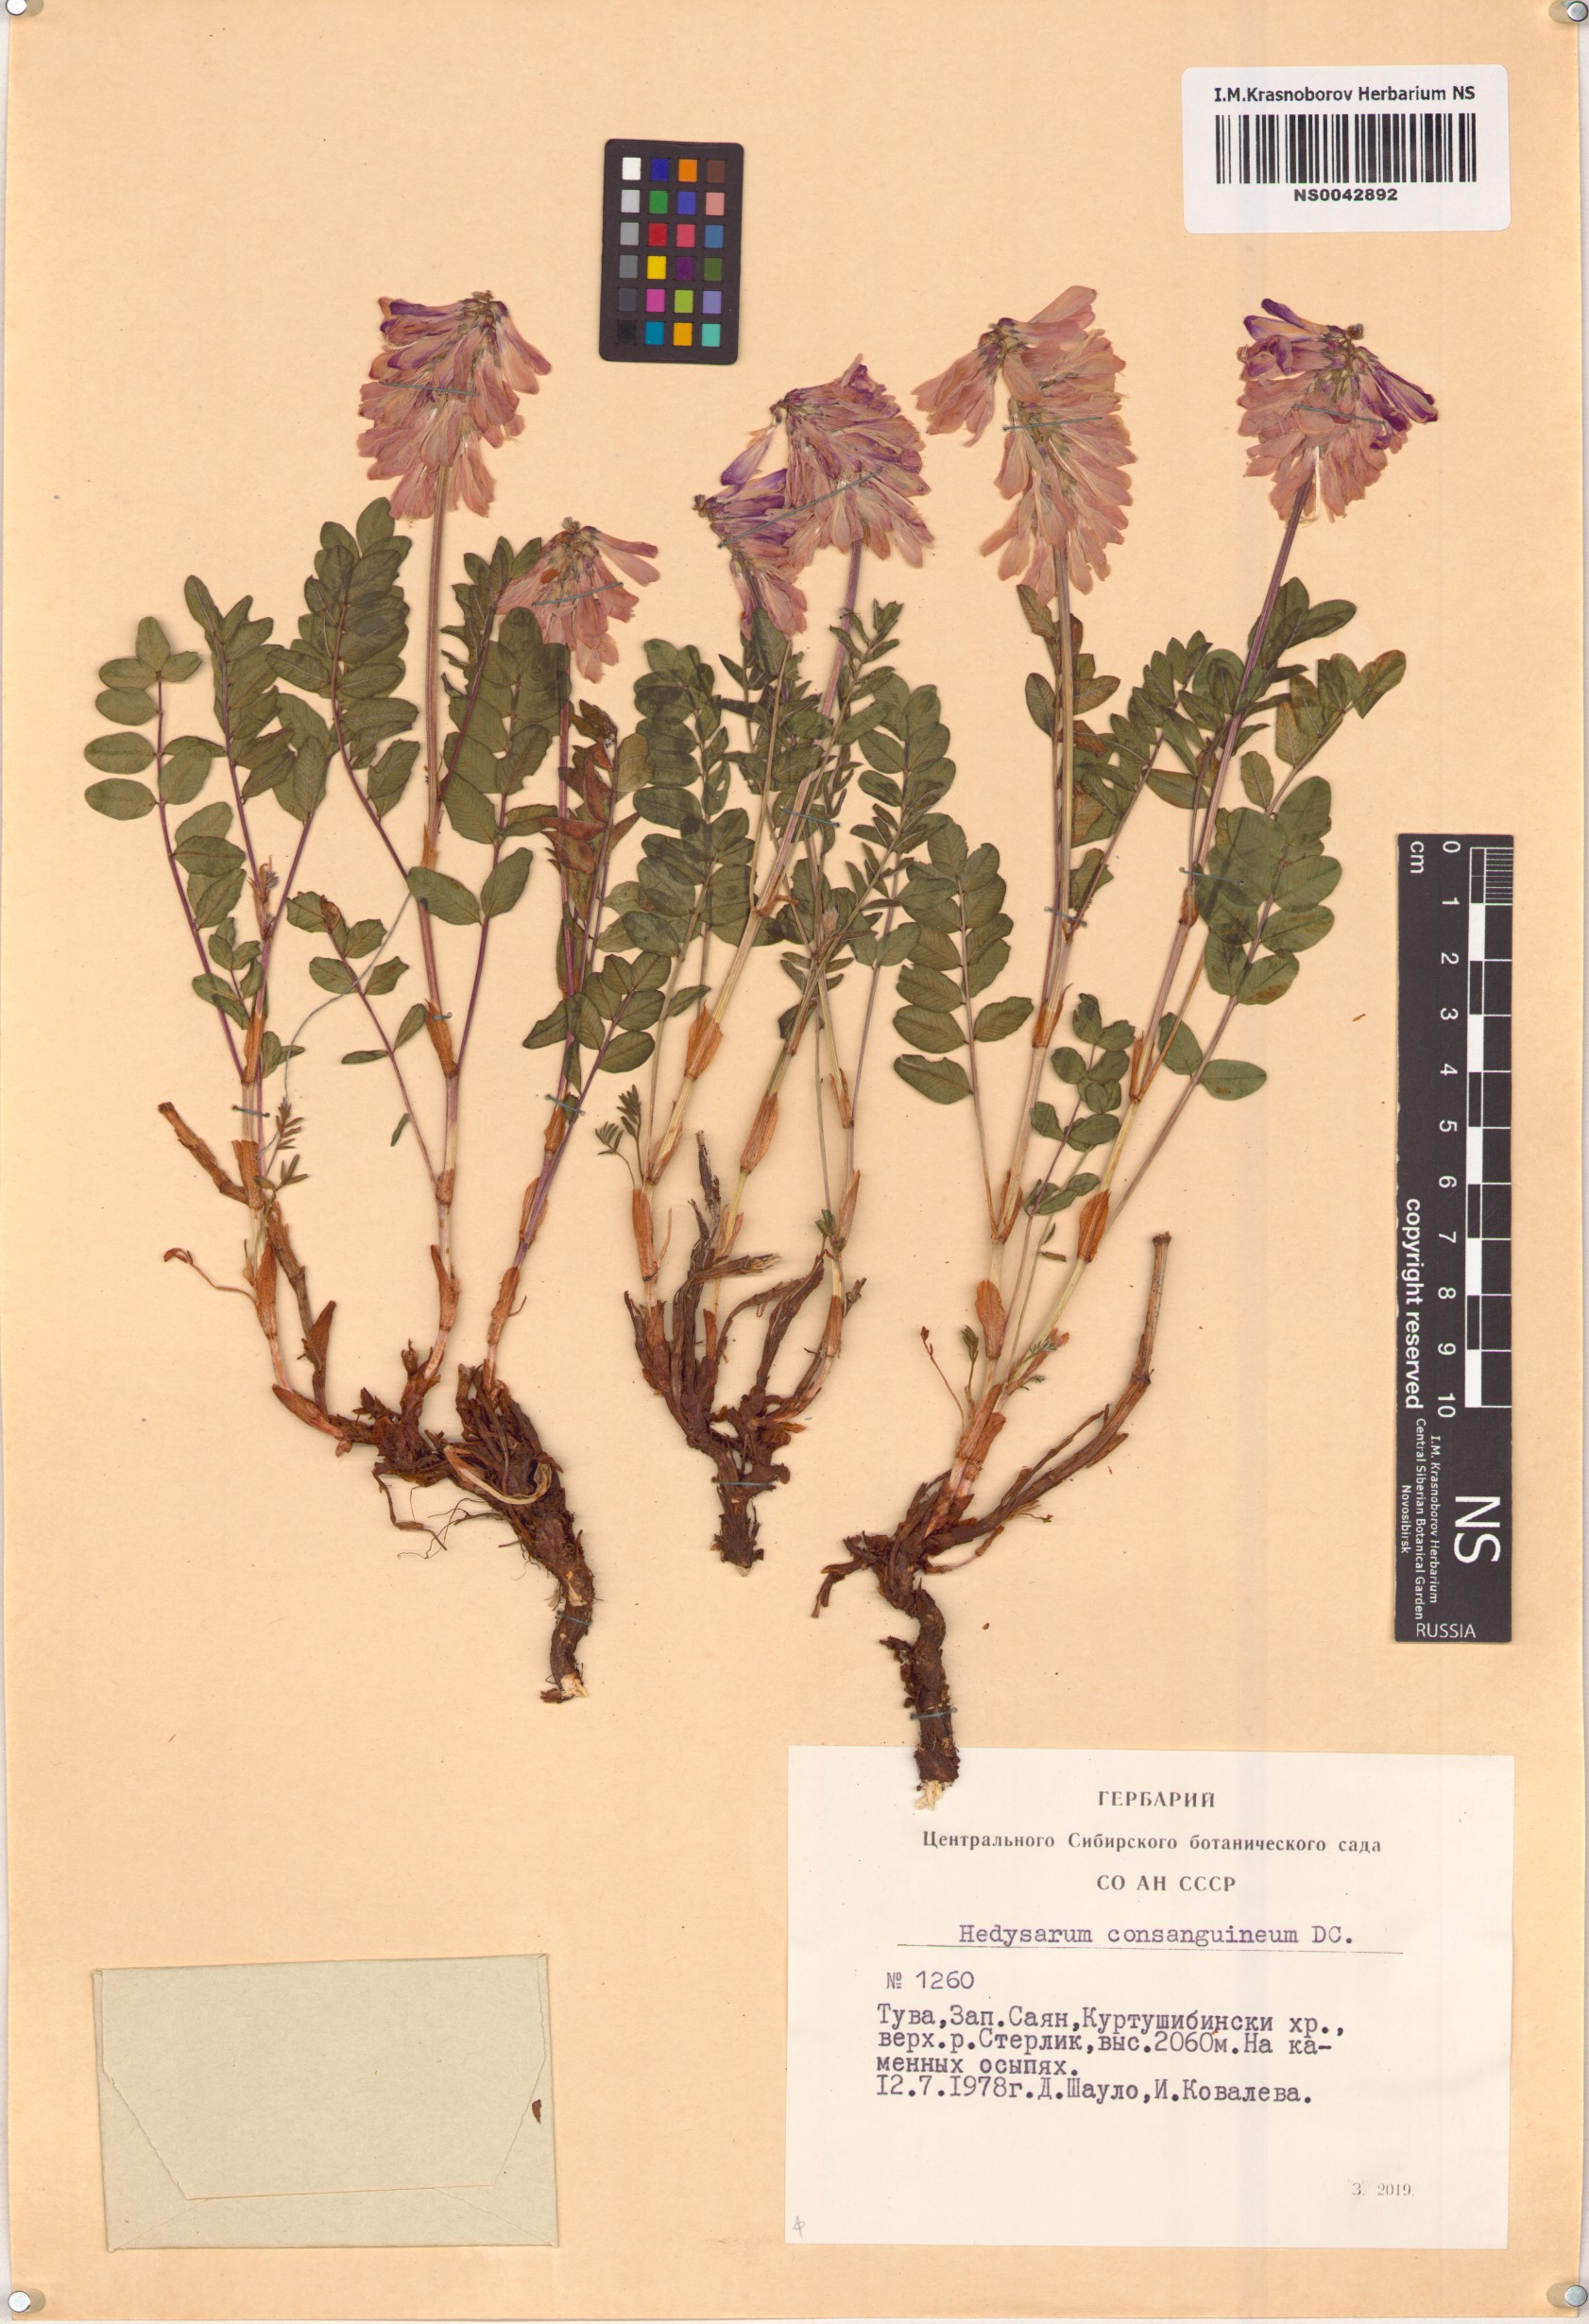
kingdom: Plantae
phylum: Tracheophyta
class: Magnoliopsida
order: Fabales
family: Fabaceae
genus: Hedysarum
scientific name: Hedysarum consanguineum
